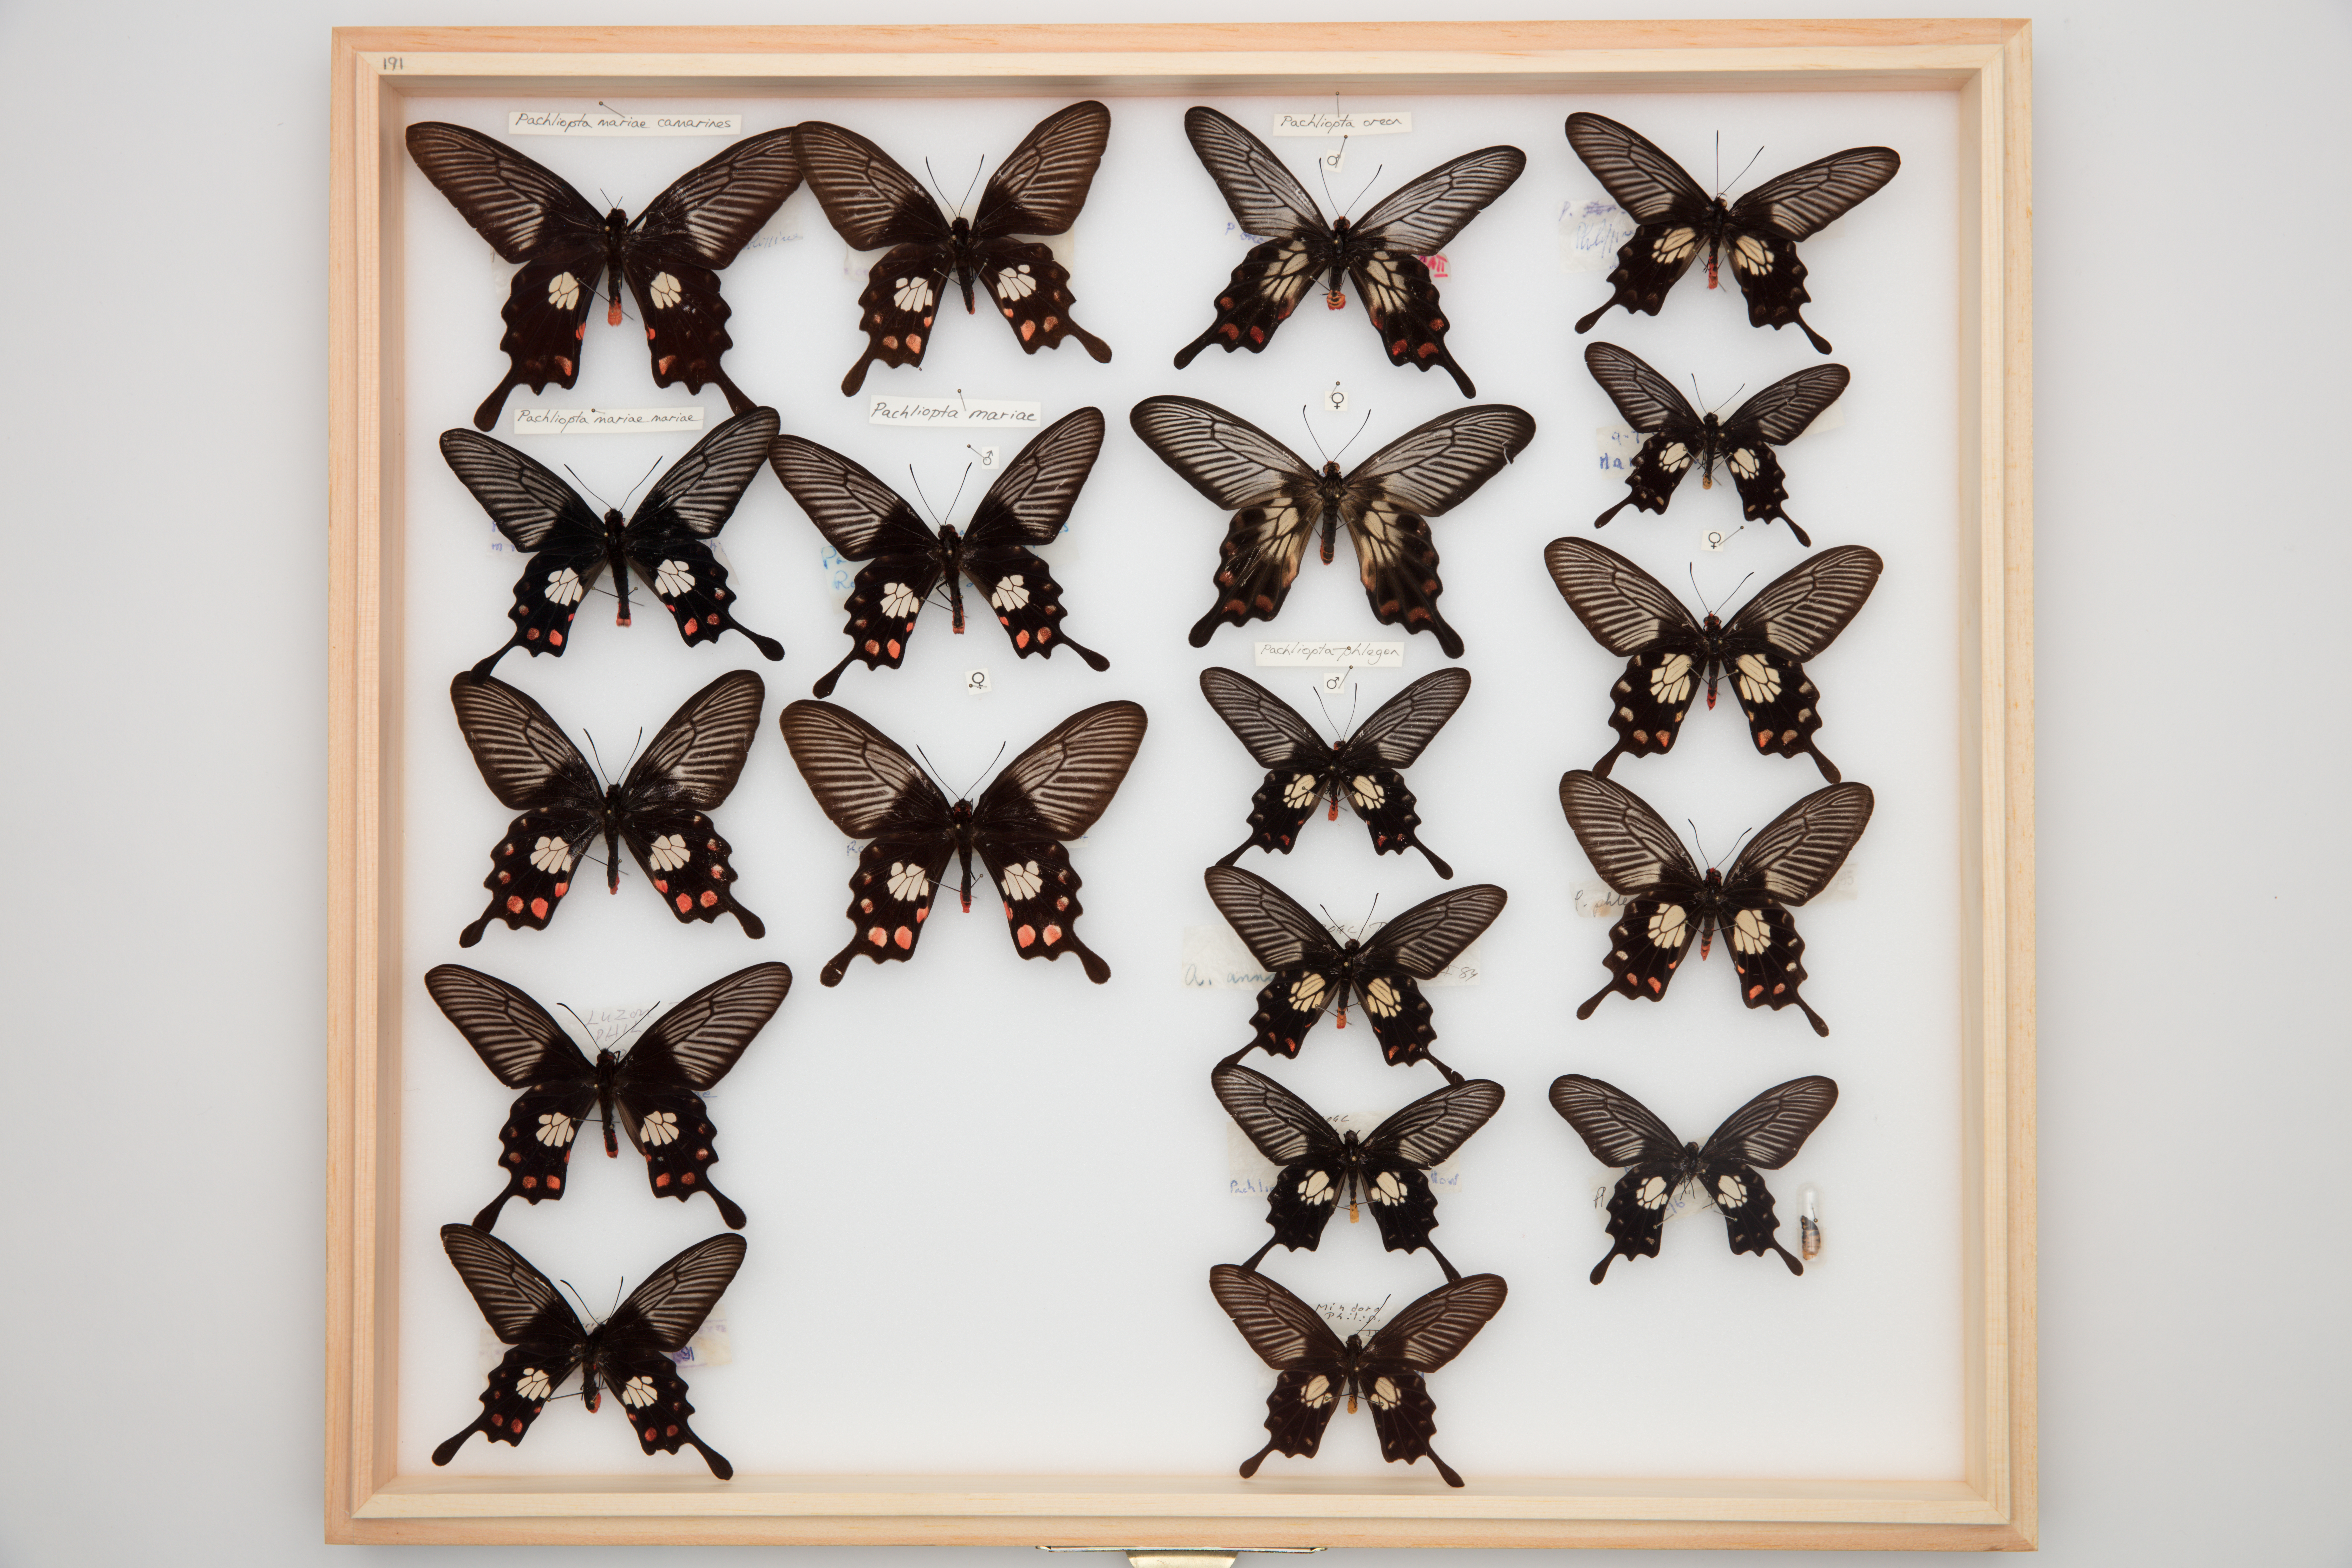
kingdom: Animalia
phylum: Arthropoda
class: Insecta
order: Lepidoptera
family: Papilionidae
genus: Pachliopta
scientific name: Pachliopta mariae
